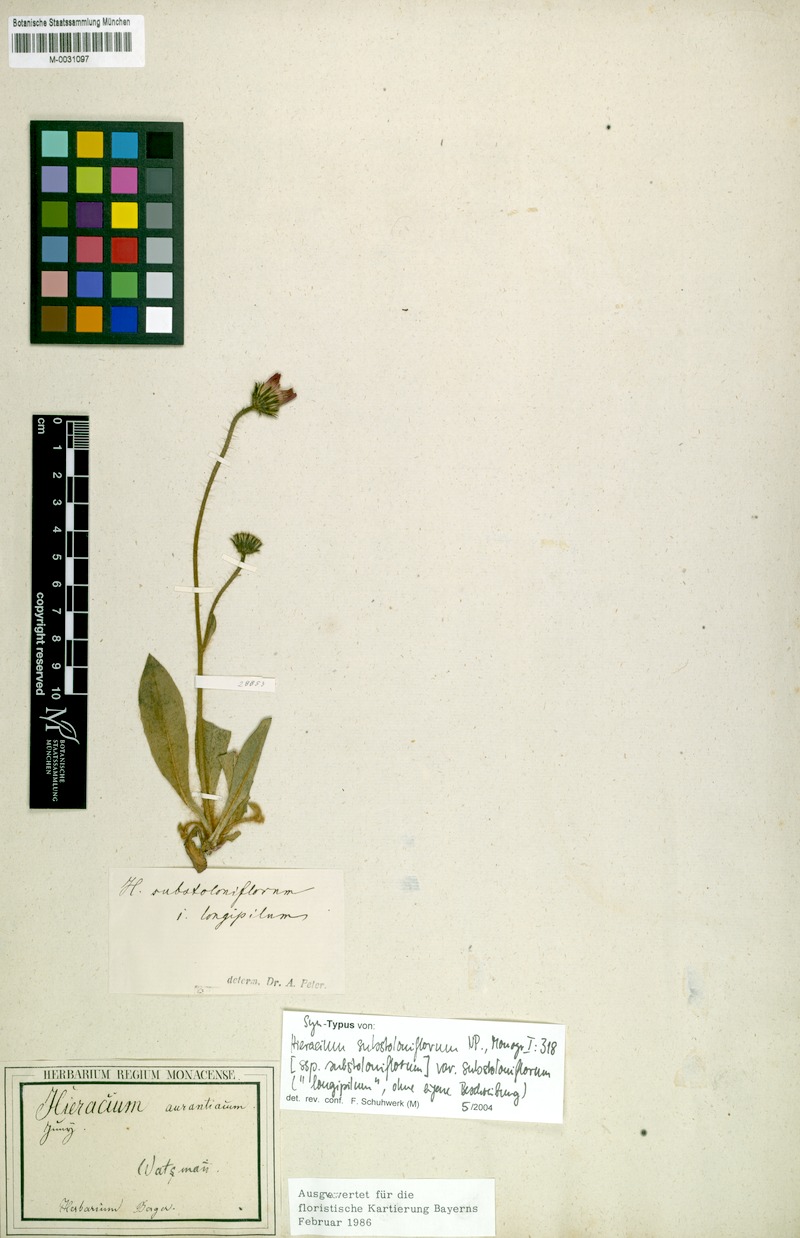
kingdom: Plantae
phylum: Tracheophyta
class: Magnoliopsida
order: Asterales
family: Asteraceae
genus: Pilosella
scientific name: Pilosella substoloniflora
